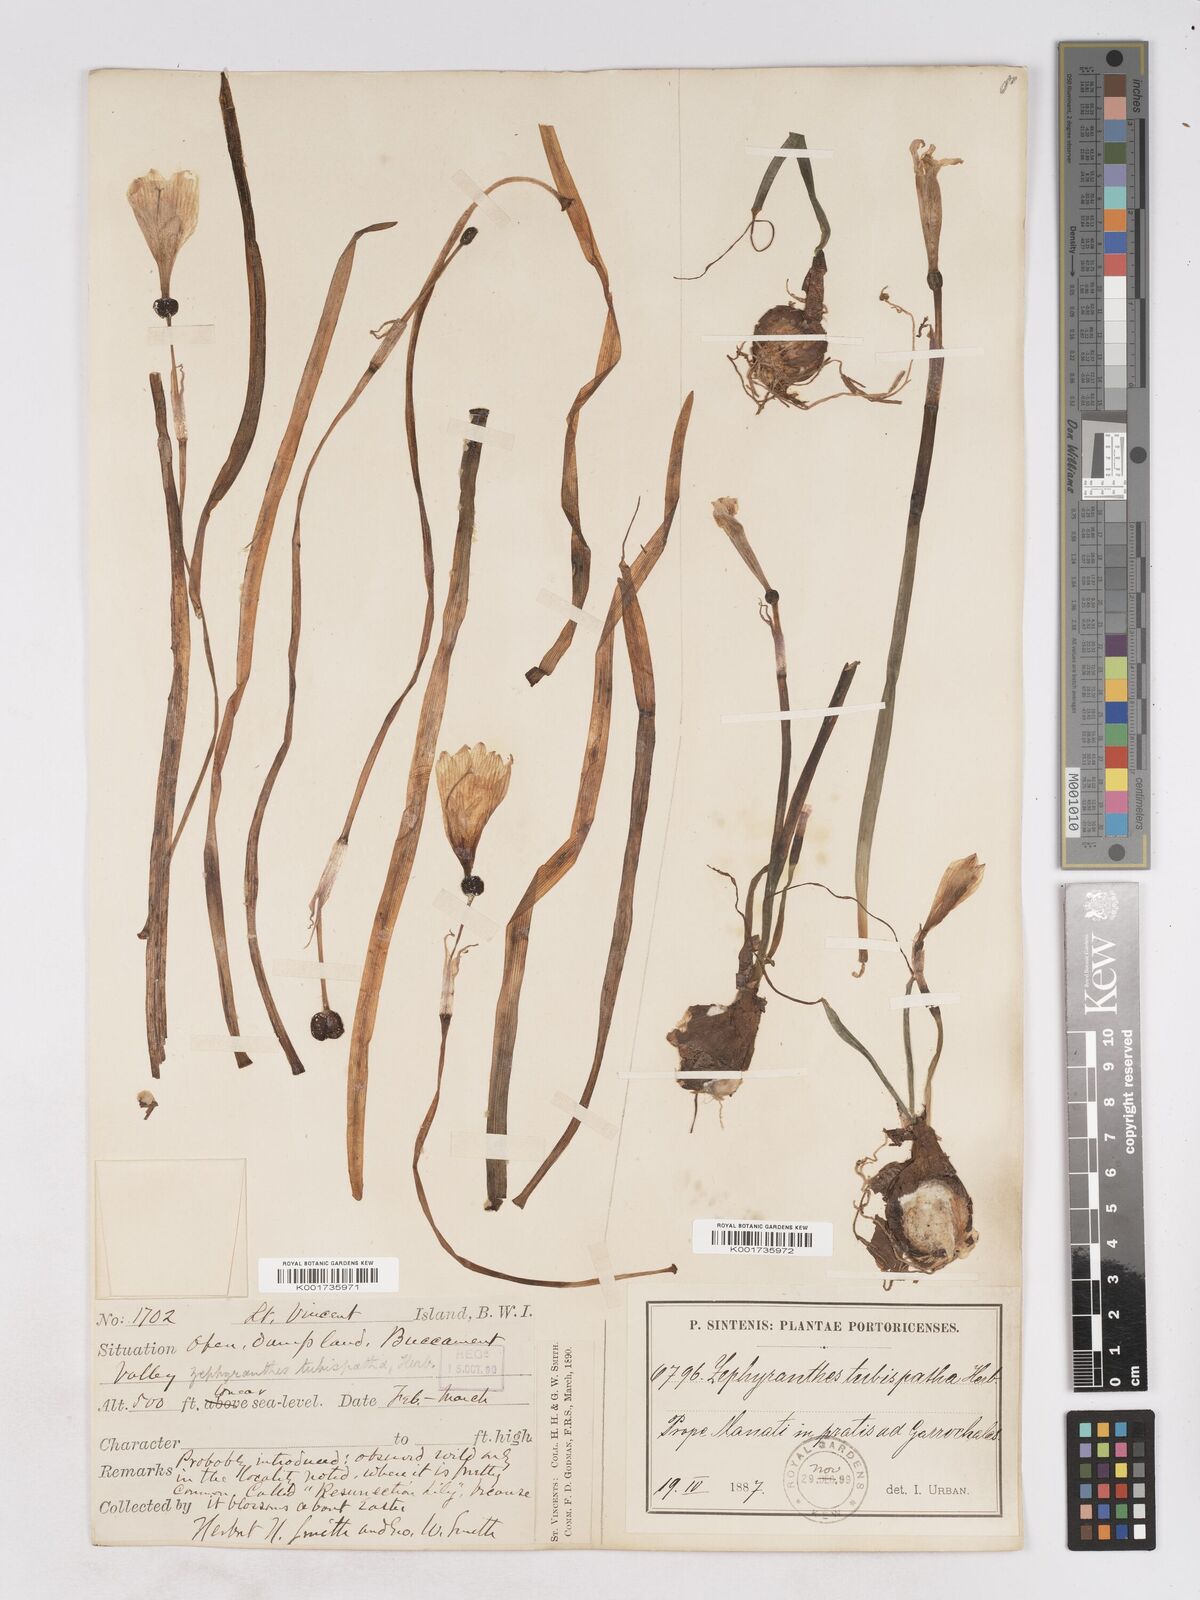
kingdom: Plantae
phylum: Tracheophyta
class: Liliopsida
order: Asparagales
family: Amaryllidaceae
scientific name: Amaryllidaceae
